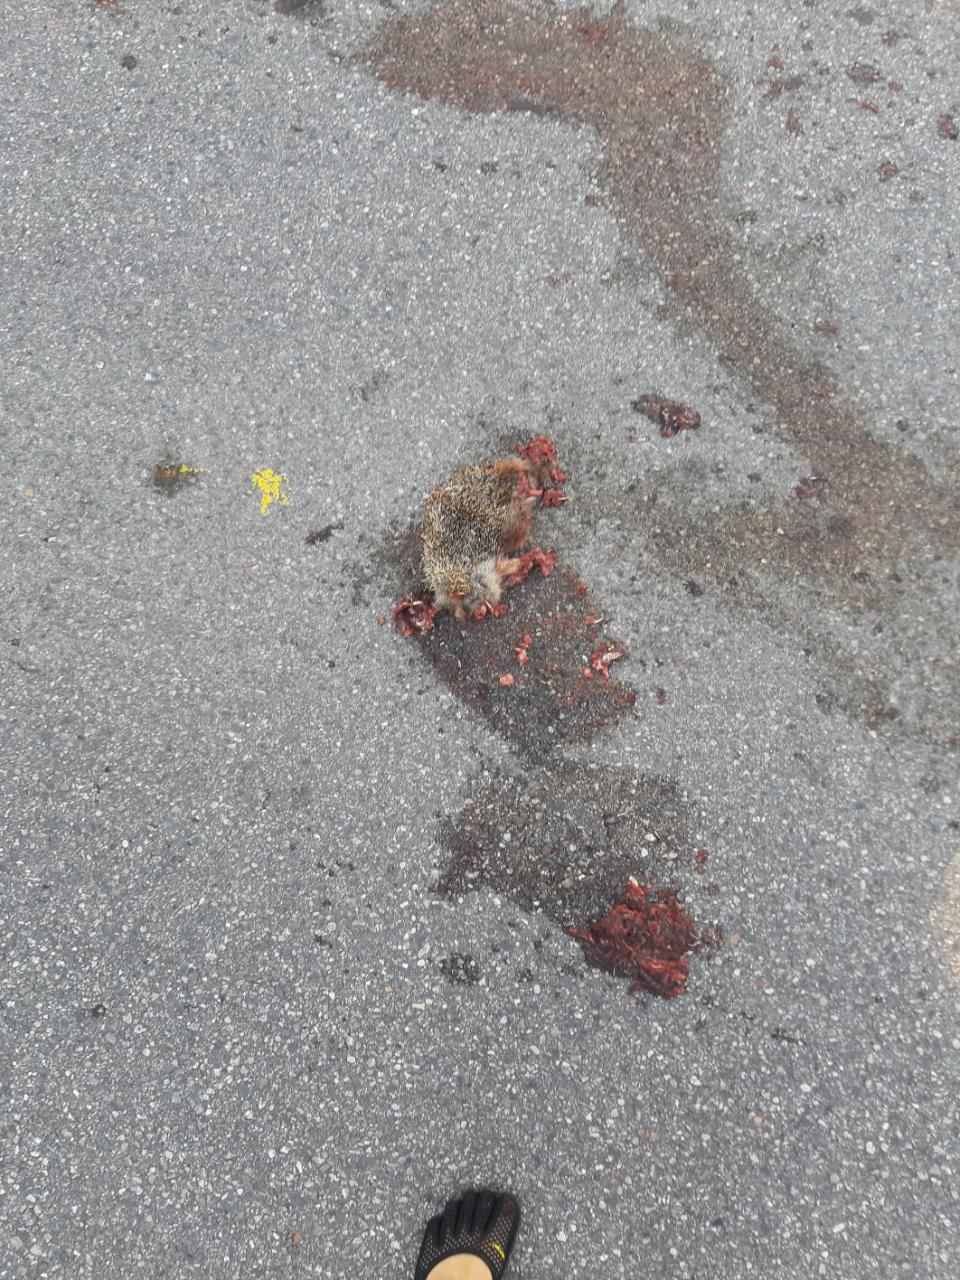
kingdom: Animalia
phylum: Chordata
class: Mammalia
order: Erinaceomorpha
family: Erinaceidae
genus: Erinaceus
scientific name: Erinaceus
